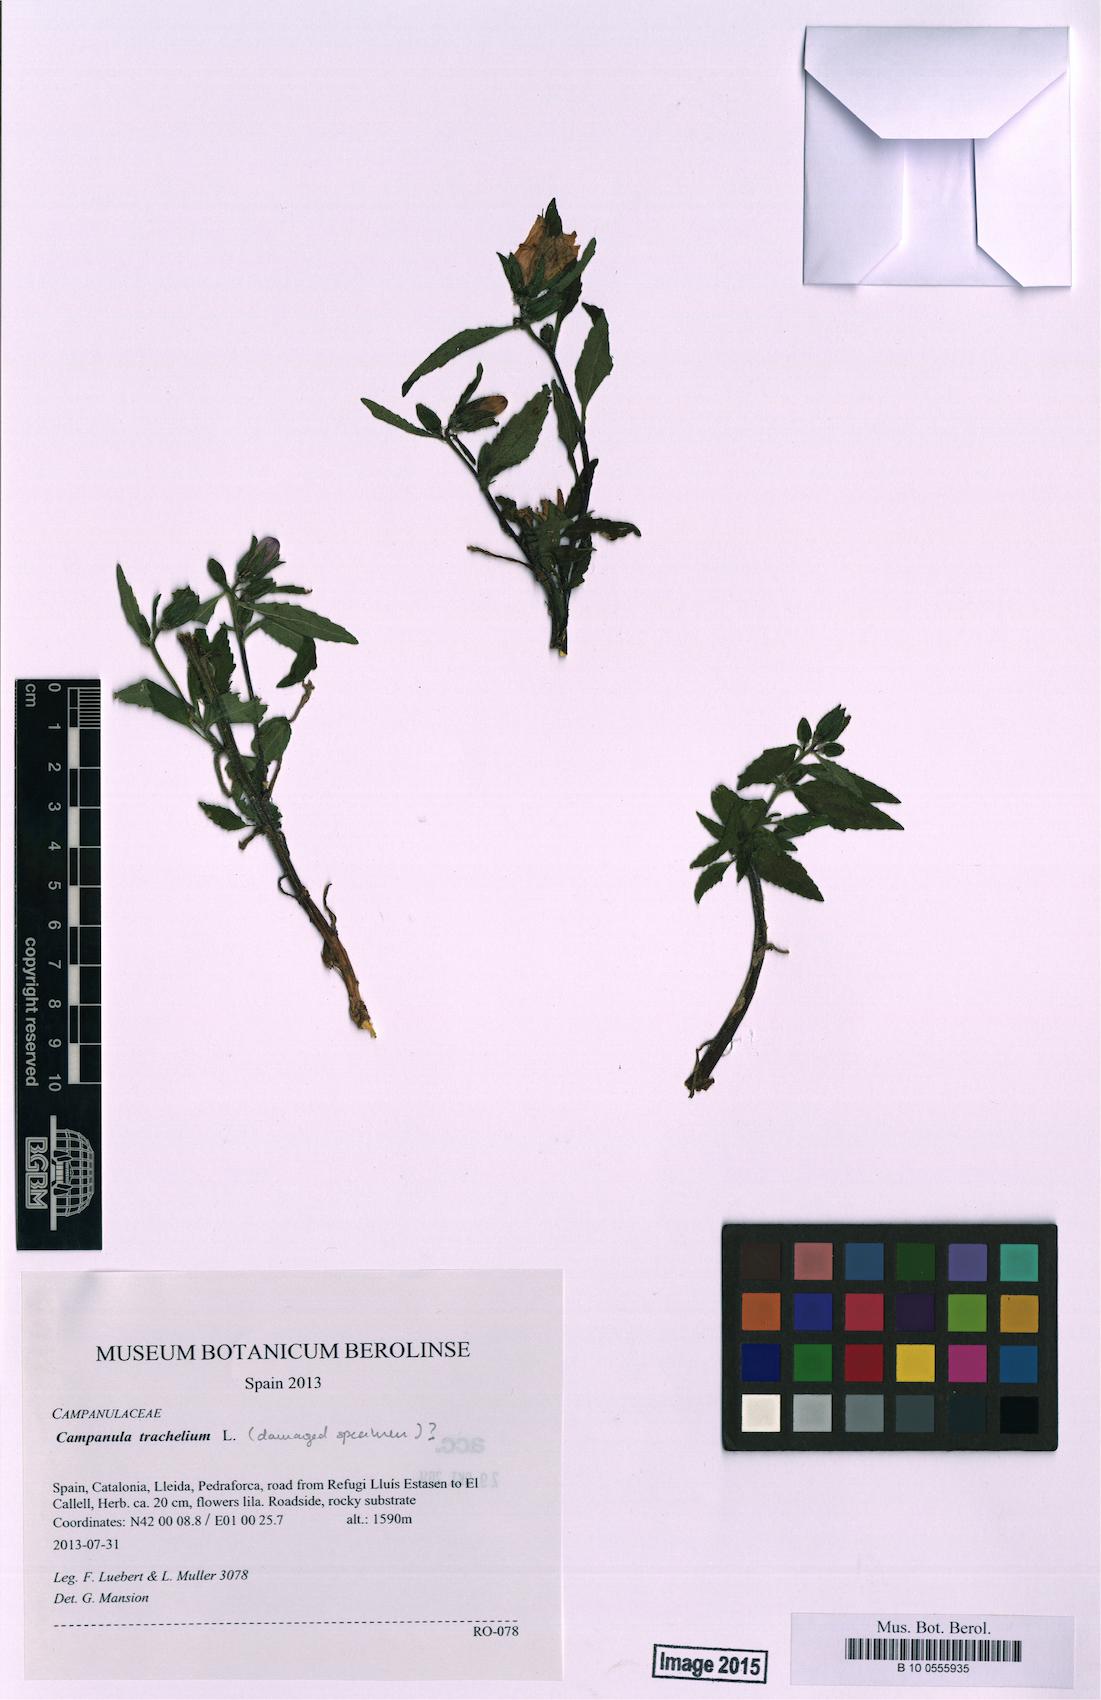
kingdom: Plantae
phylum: Tracheophyta
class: Magnoliopsida
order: Asterales
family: Campanulaceae
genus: Campanula
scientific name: Campanula trachelium
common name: Nettle-leaved bellflower
